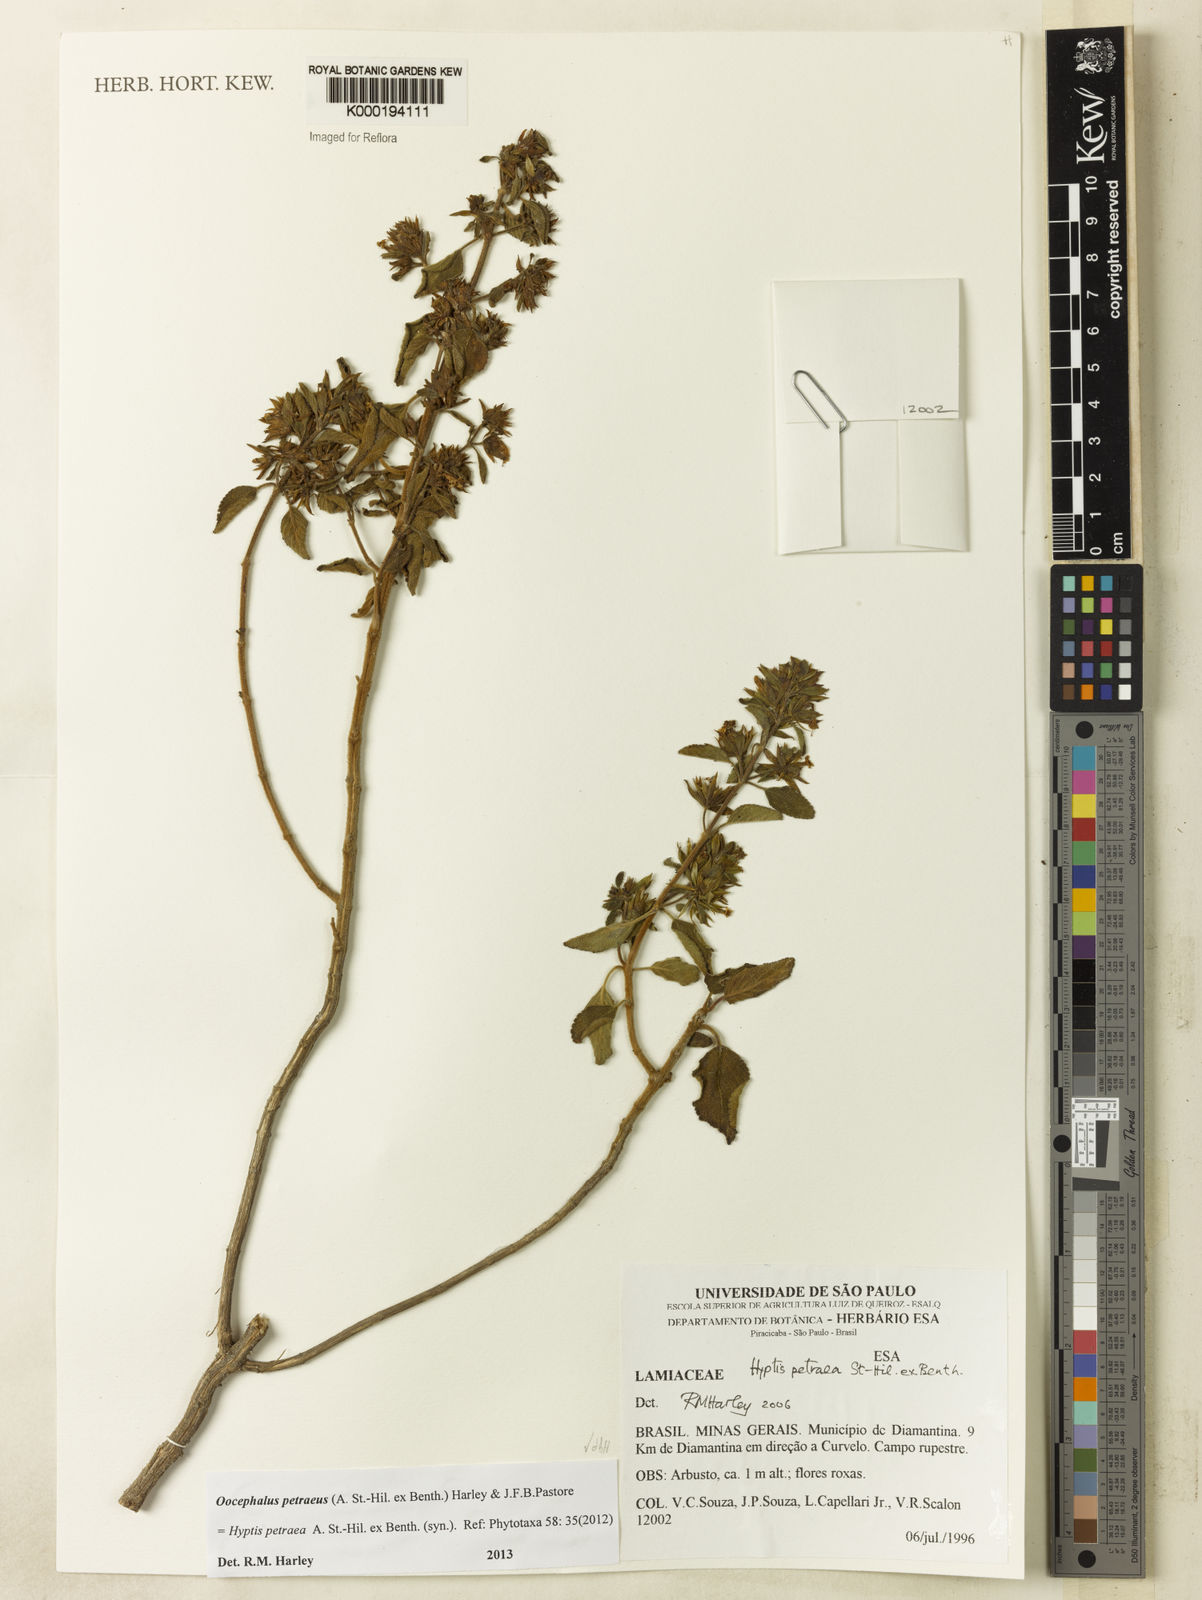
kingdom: Plantae
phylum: Tracheophyta
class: Magnoliopsida
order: Lamiales
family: Lamiaceae
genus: Oocephalus
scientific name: Oocephalus petraeus
